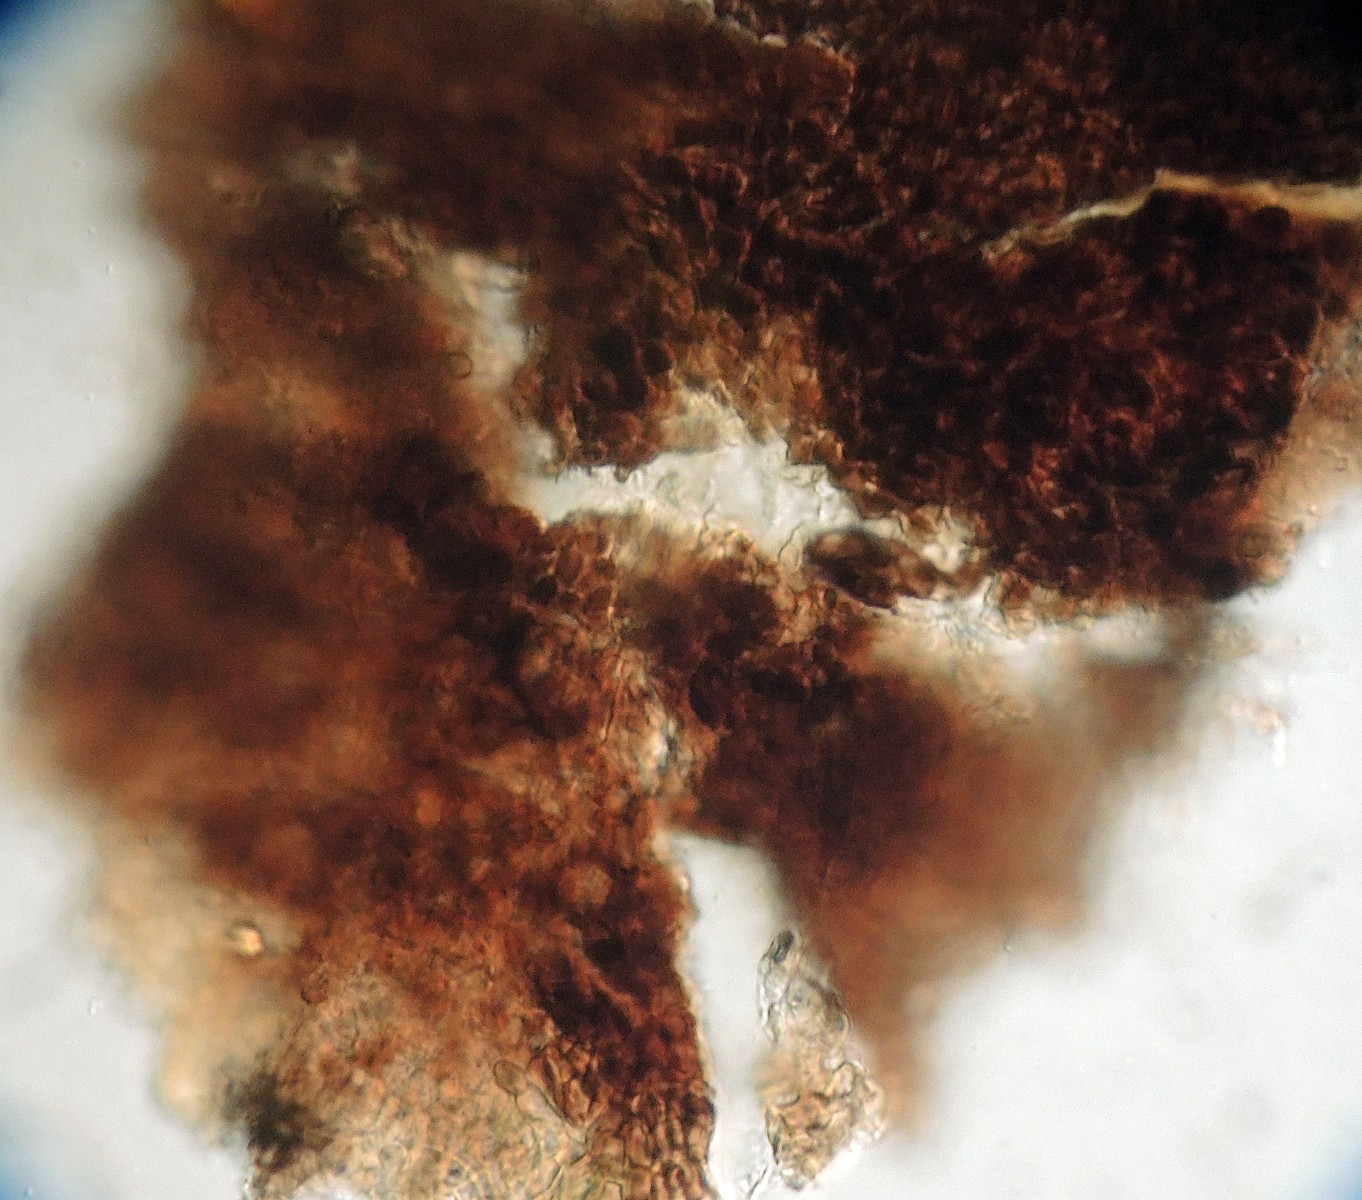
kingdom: Fungi
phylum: Ascomycota
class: Dothideomycetes
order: Mycosphaerellales
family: Schizothyriaceae
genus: Schizothyrium
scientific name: Schizothyrium speireum
